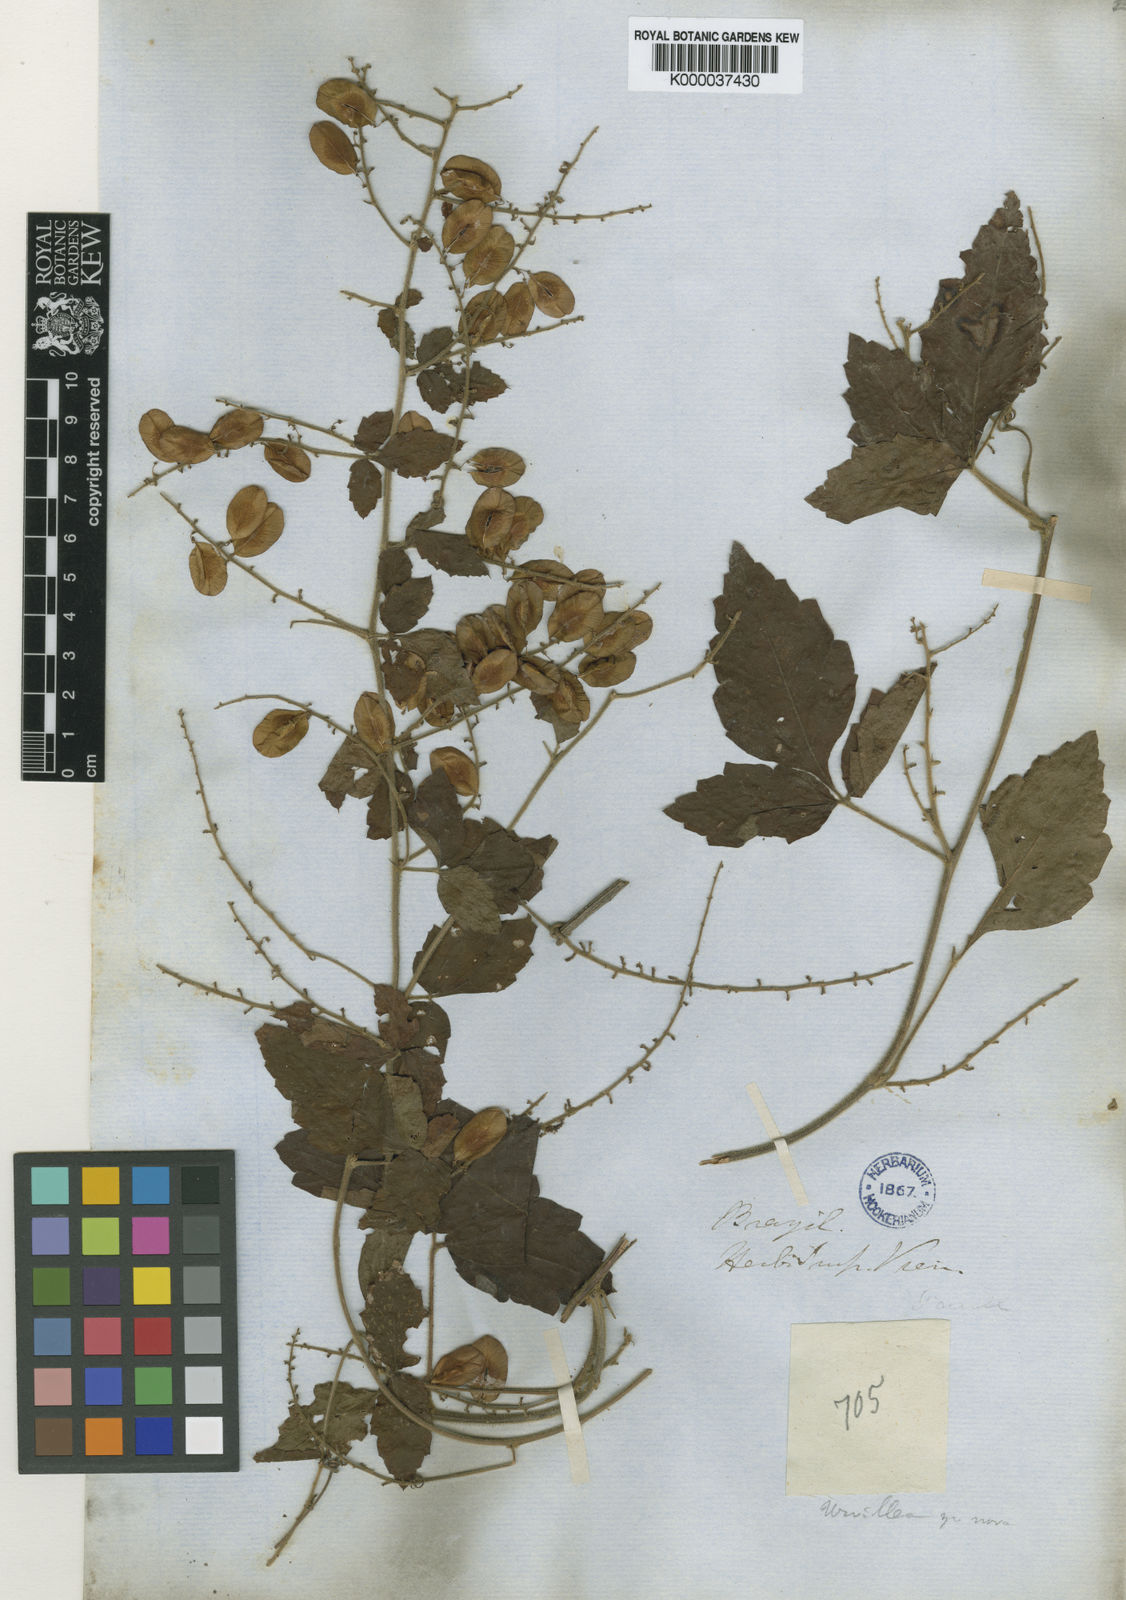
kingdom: Plantae
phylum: Tracheophyta
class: Magnoliopsida
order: Sapindales
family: Sapindaceae
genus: Urvillea
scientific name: Urvillea laevis
